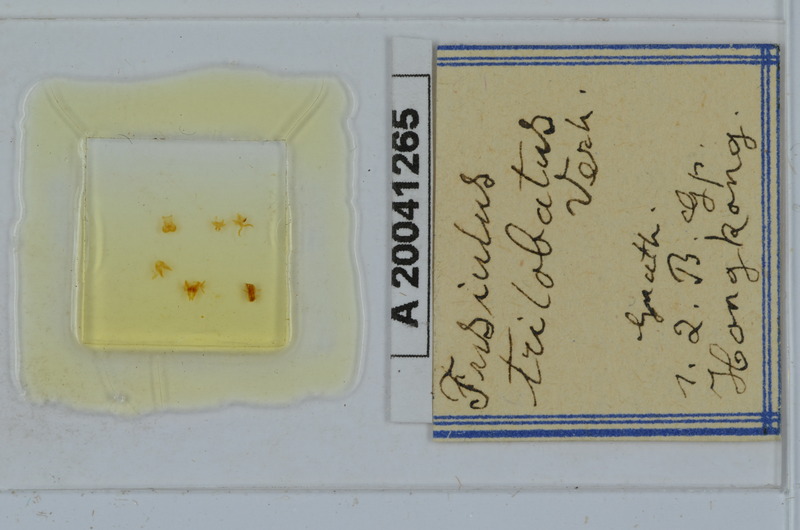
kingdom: Animalia
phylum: Arthropoda
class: Diplopoda
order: Julida
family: Julidae
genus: Fusiulus
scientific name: Fusiulus trilobus
